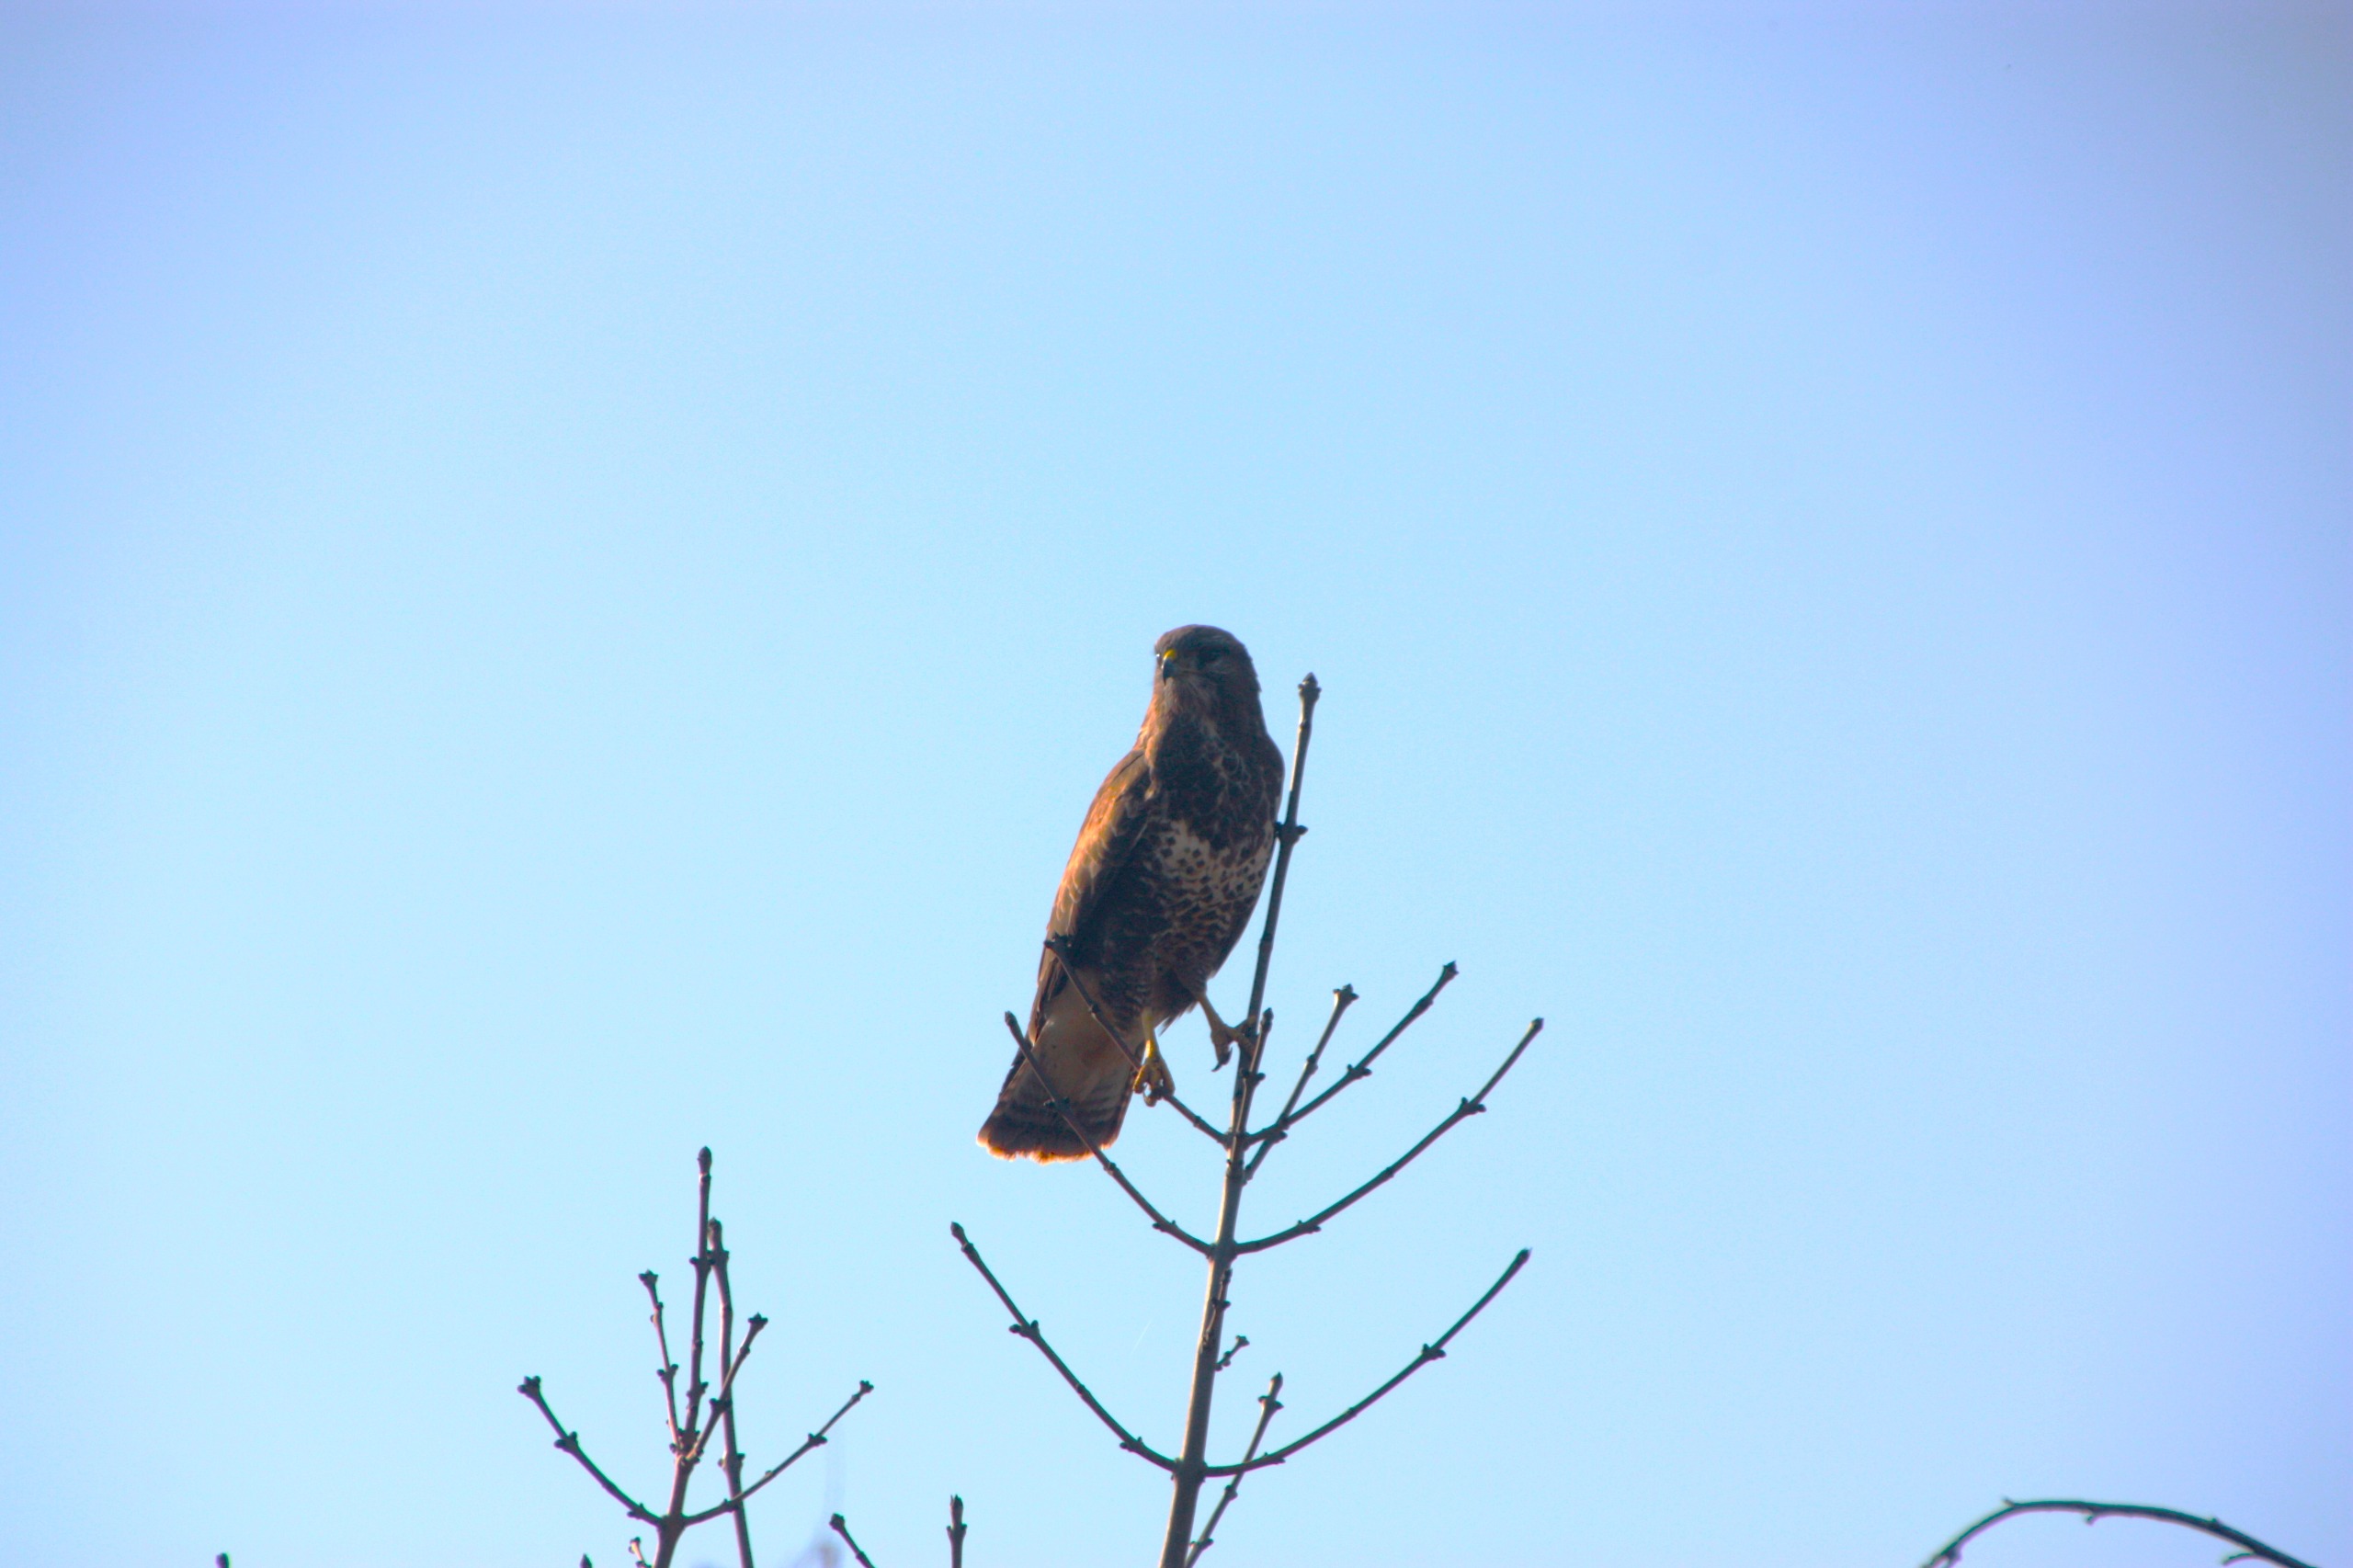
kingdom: Animalia
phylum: Chordata
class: Aves
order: Accipitriformes
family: Accipitridae
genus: Buteo
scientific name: Buteo buteo
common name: Musvåge
